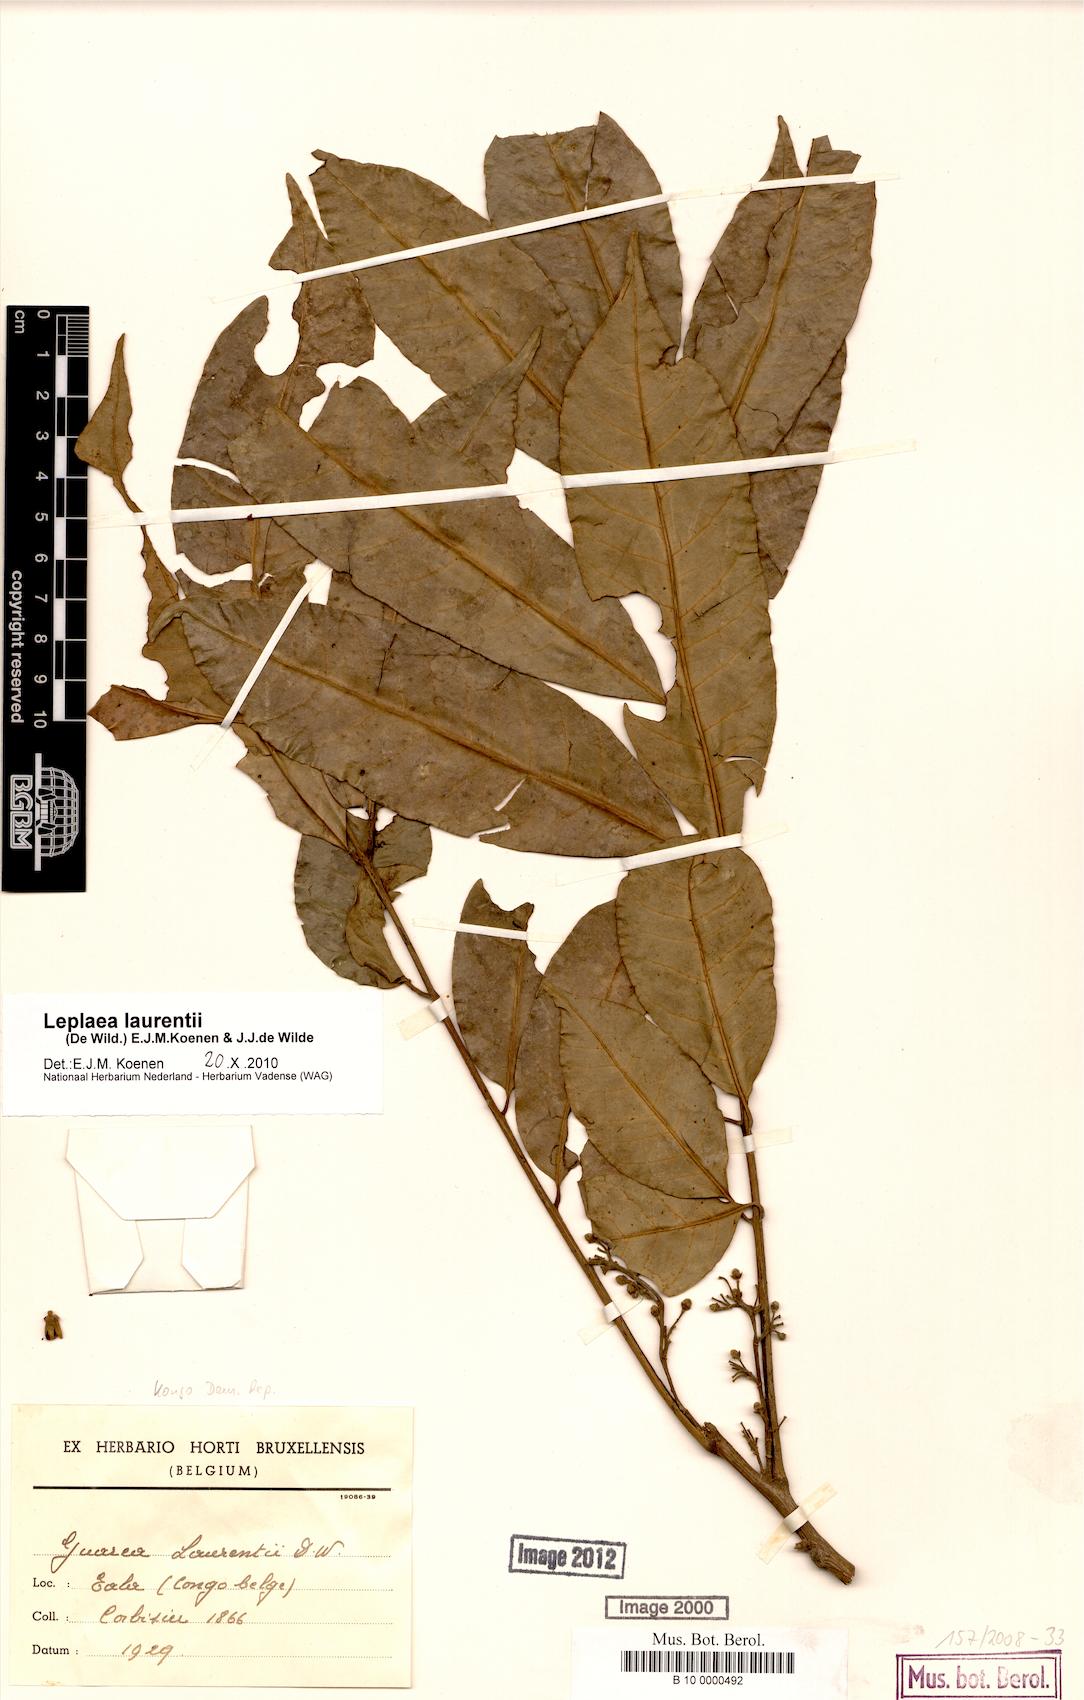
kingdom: Plantae
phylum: Tracheophyta
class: Magnoliopsida
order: Sapindales
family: Meliaceae
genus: Leplaea
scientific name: Leplaea laurentii
